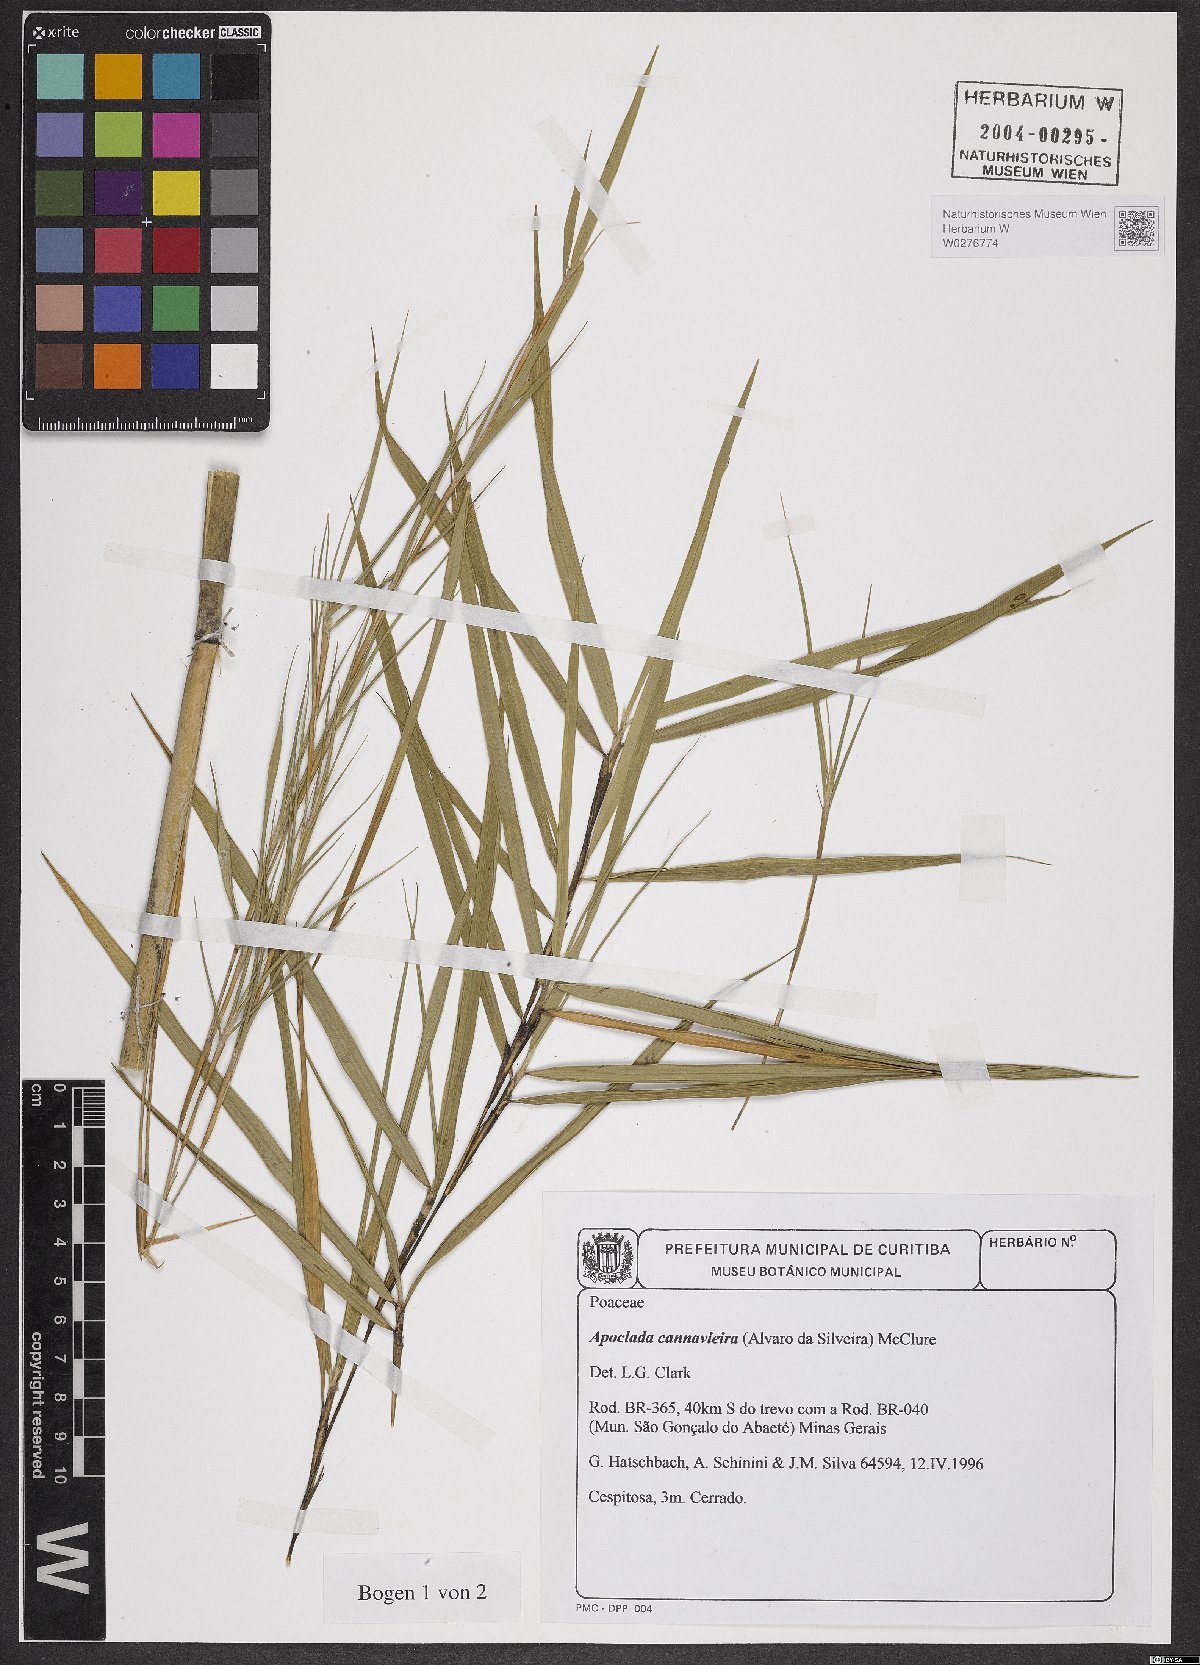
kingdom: Plantae
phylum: Tracheophyta
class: Liliopsida
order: Poales
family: Poaceae
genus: Filgueirasia
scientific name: Filgueirasia cannavieira
